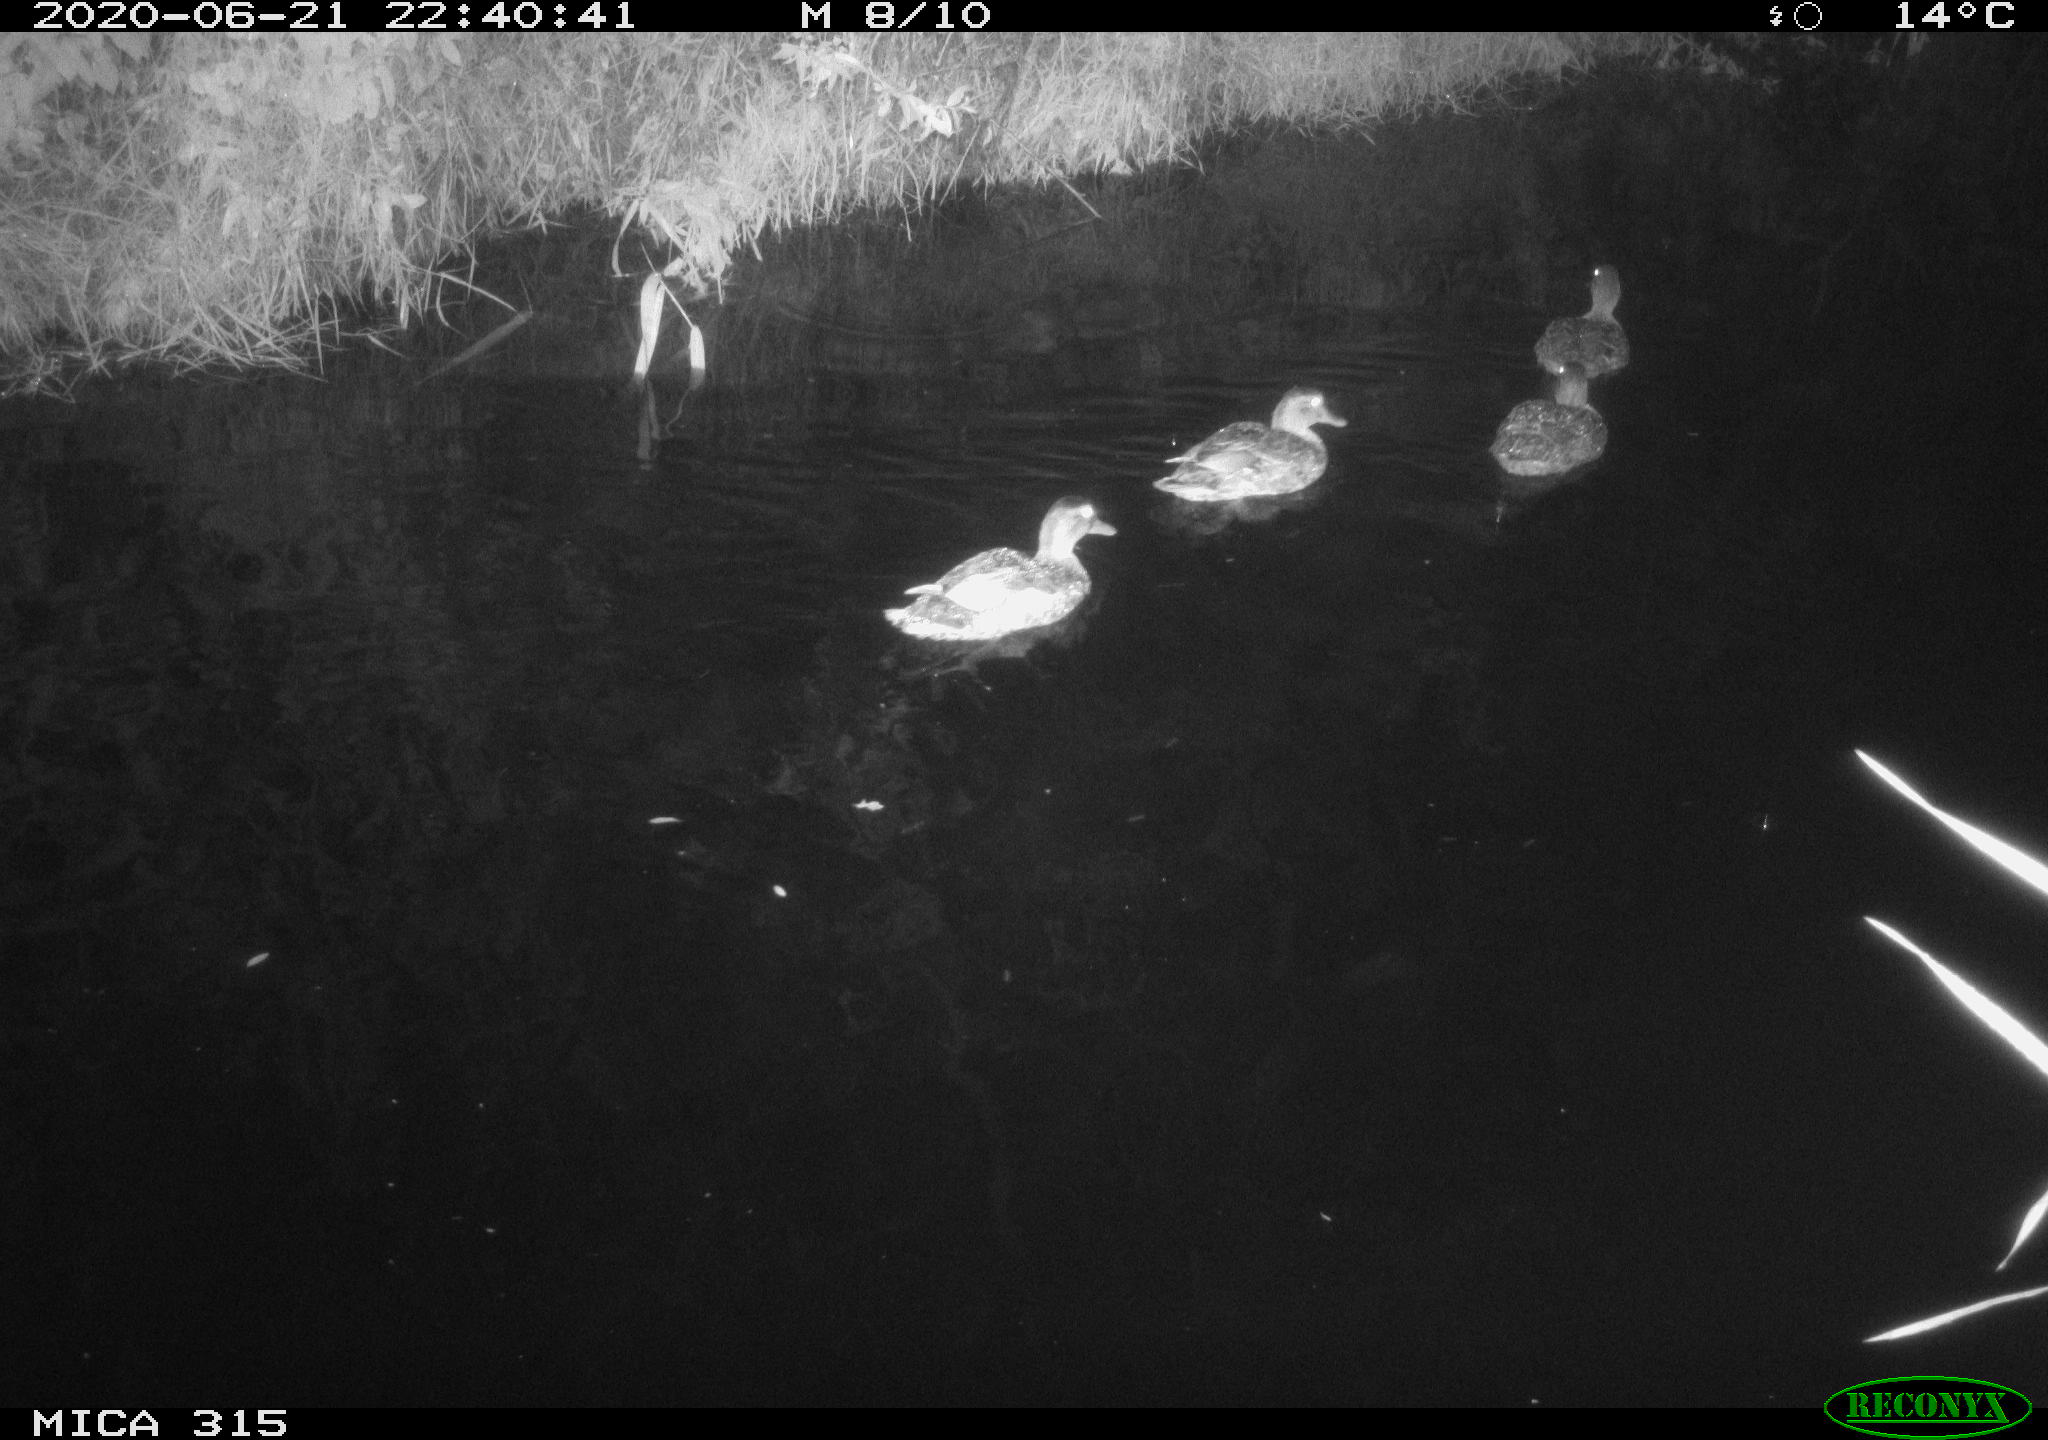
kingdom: Animalia
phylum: Chordata
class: Aves
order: Anseriformes
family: Anatidae
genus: Anas
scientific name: Anas platyrhynchos
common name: Mallard
